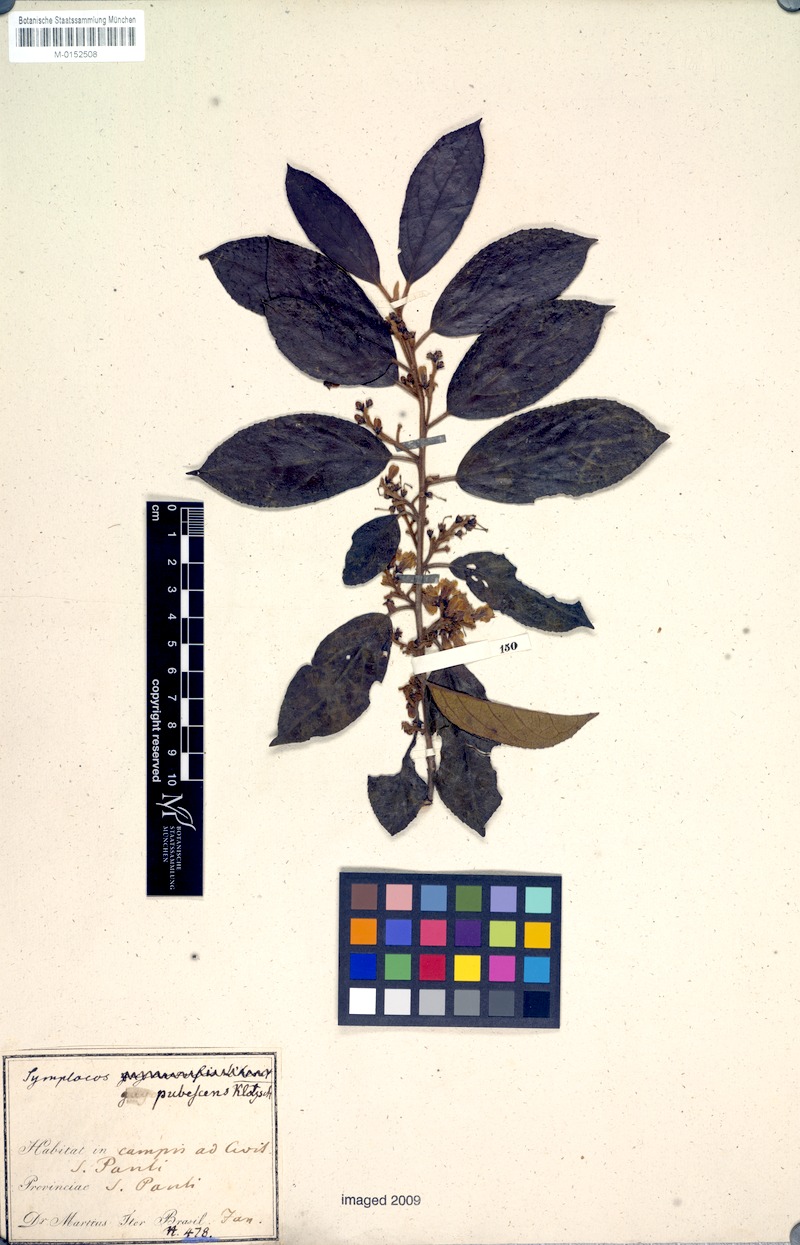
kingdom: Plantae
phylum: Tracheophyta
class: Magnoliopsida
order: Ericales
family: Symplocaceae
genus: Symplocos
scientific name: Symplocos pubescens
